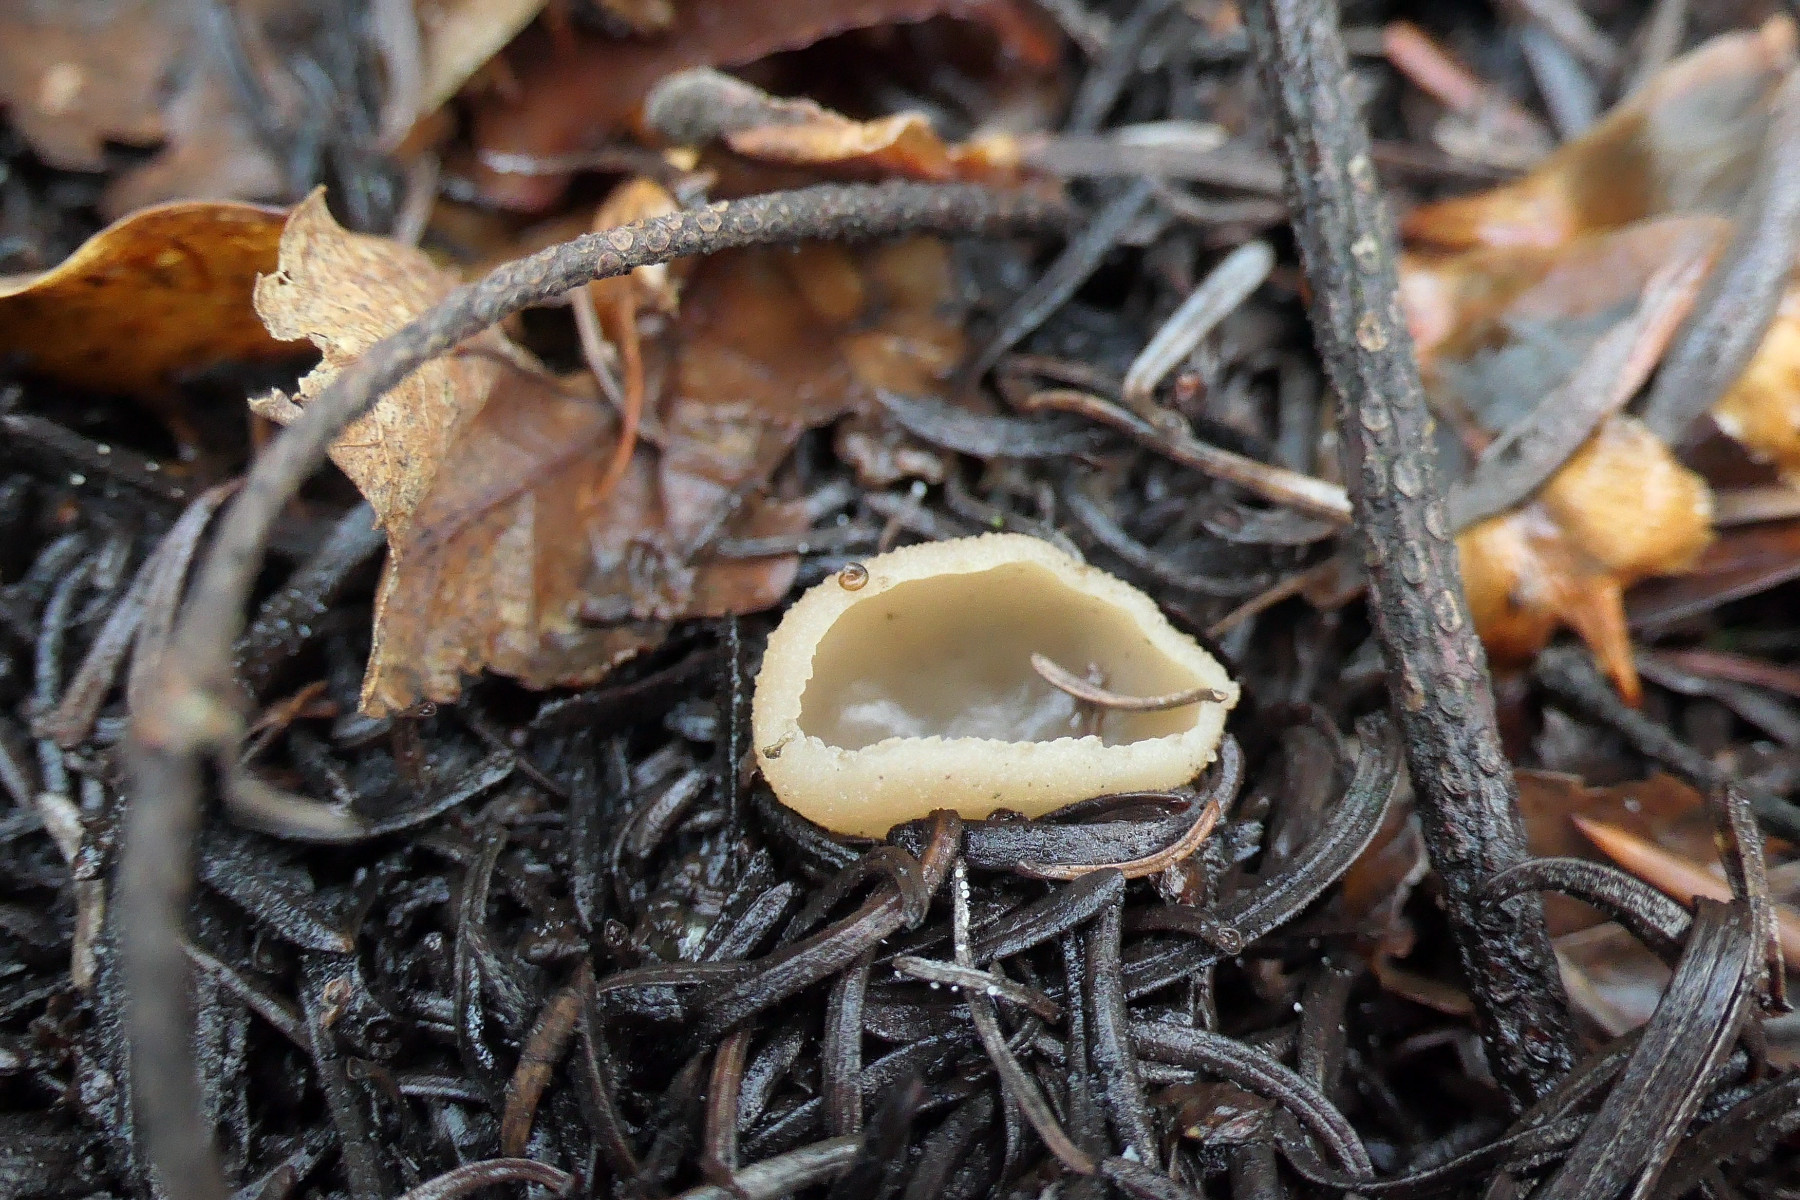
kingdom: Fungi
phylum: Ascomycota
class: Pezizomycetes
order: Pezizales
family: Pezizaceae
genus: Peziza
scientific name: Peziza
